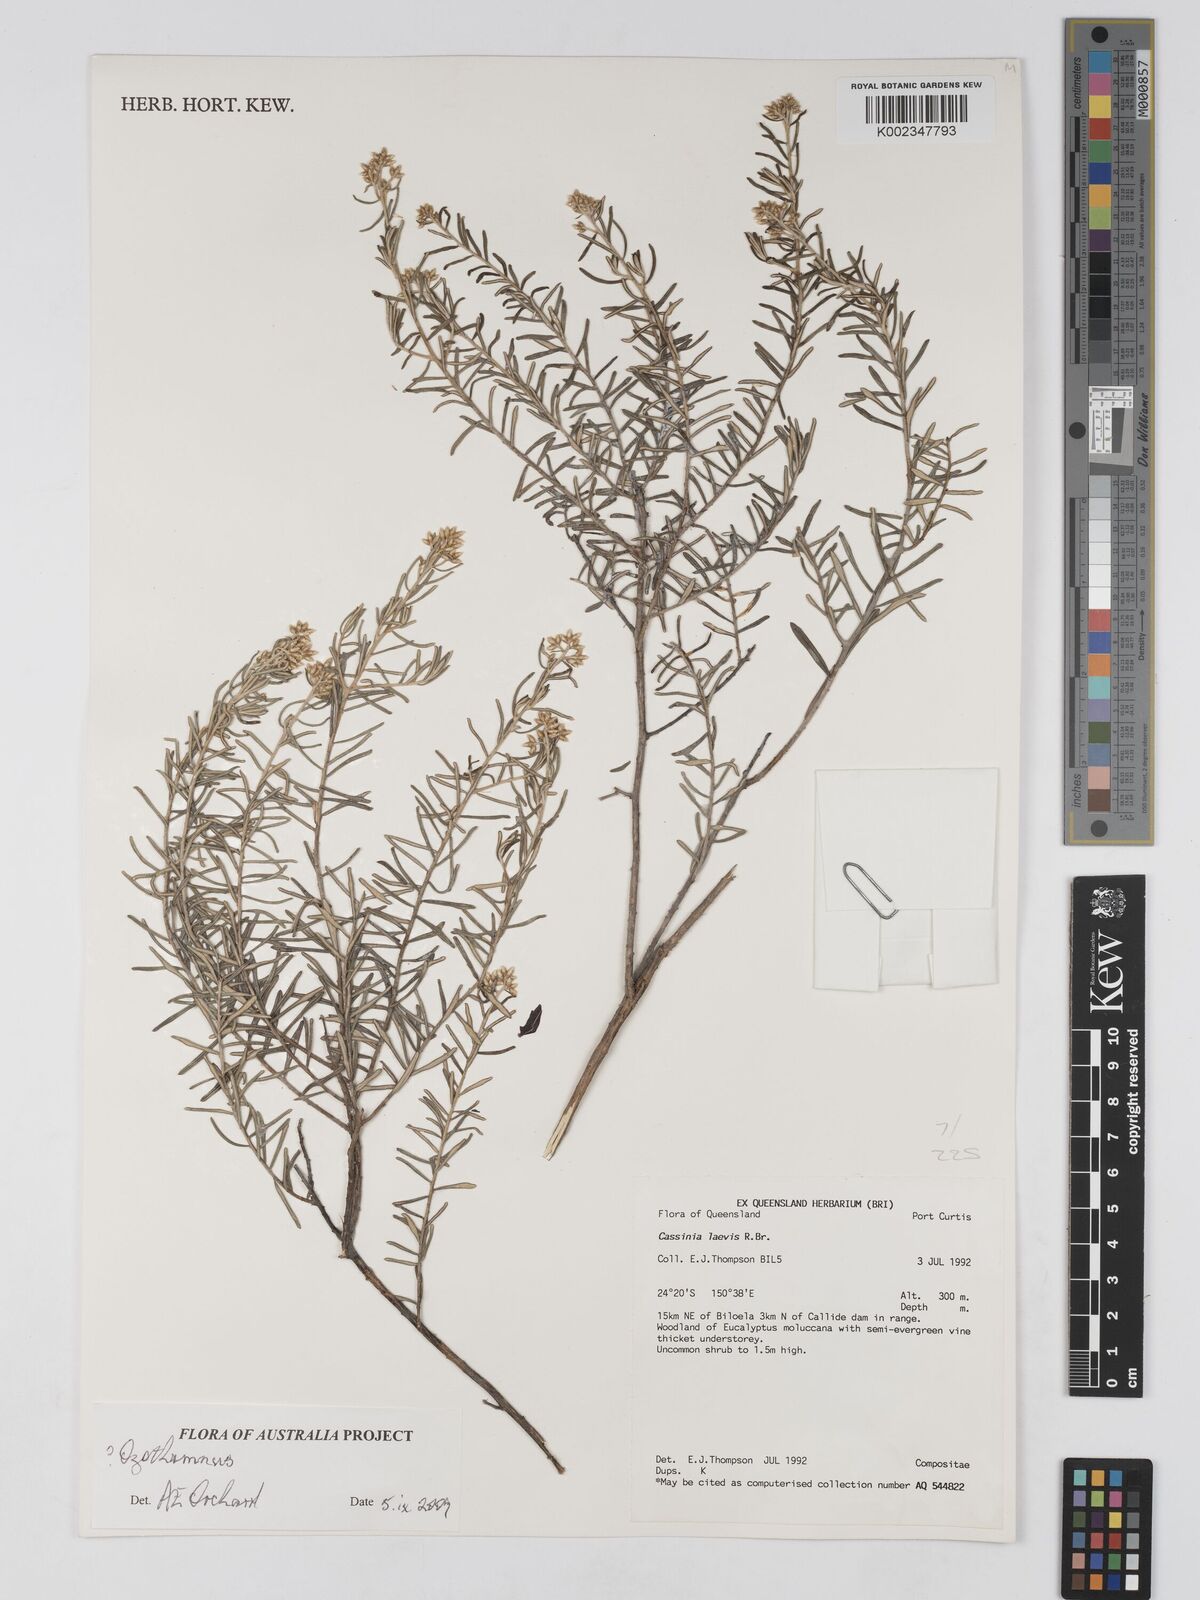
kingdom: Plantae
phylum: Tracheophyta
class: Magnoliopsida
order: Asterales
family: Asteraceae
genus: Ozothamnus
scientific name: Ozothamnus
